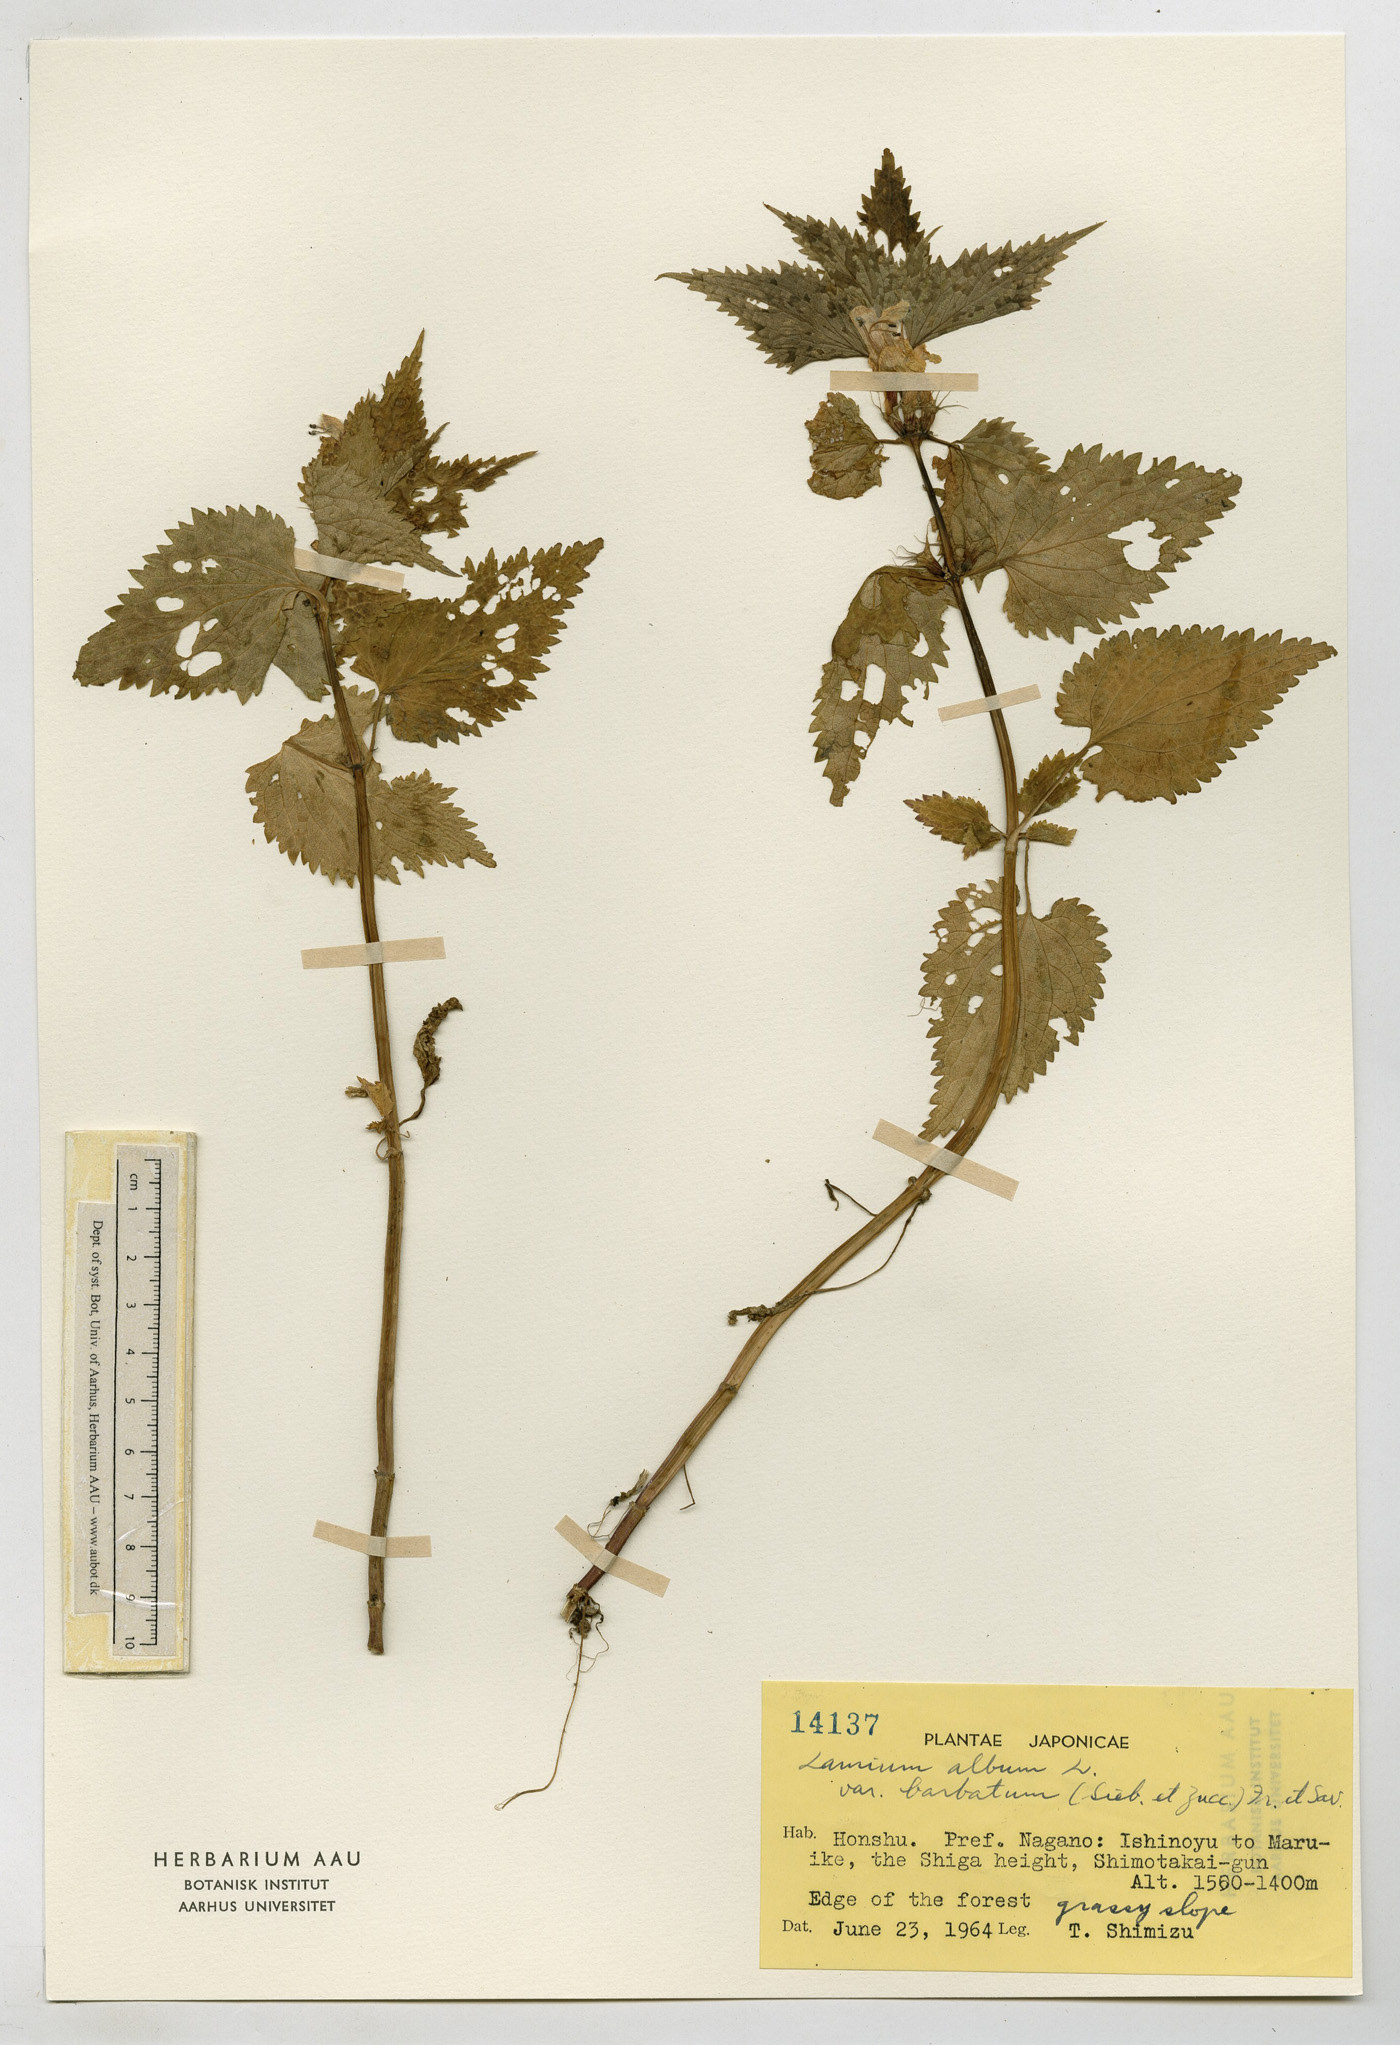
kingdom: Plantae
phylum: Tracheophyta
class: Magnoliopsida
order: Lamiales
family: Lamiaceae
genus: Lamium
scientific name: Lamium album
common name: White dead-nettle
